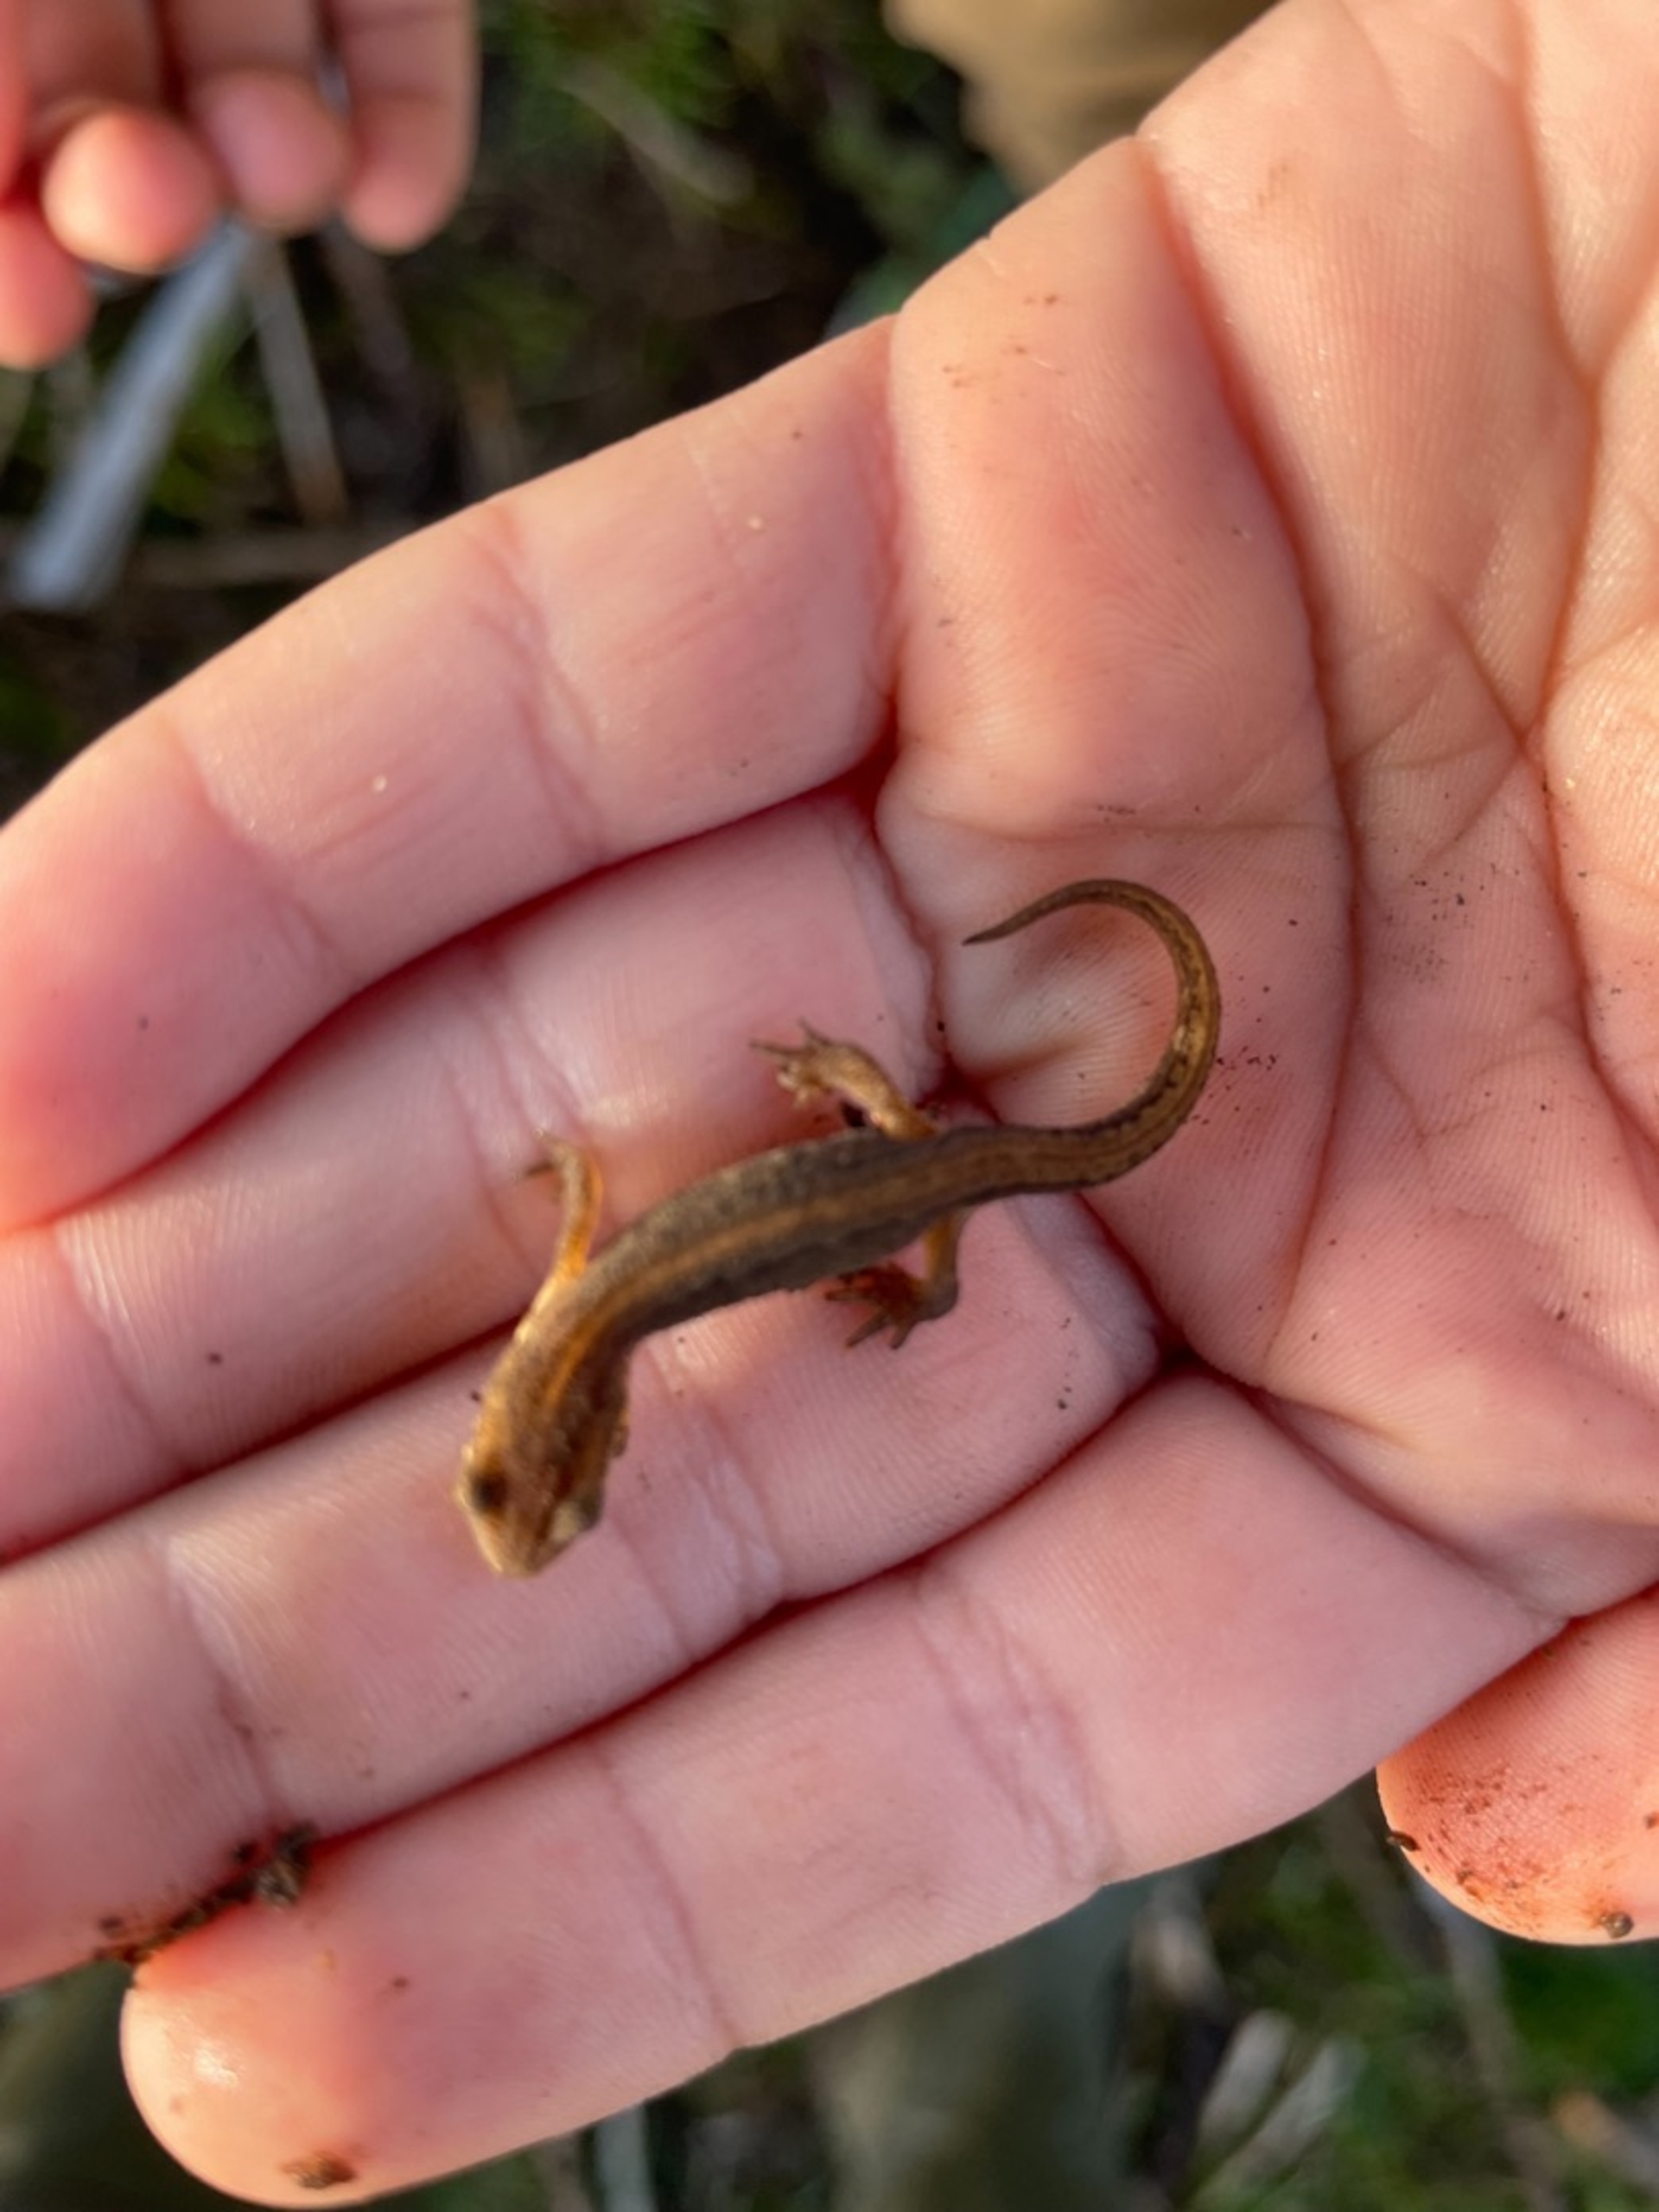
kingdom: Animalia
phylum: Chordata
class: Amphibia
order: Caudata
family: Salamandridae
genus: Lissotriton
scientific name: Lissotriton vulgaris
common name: Lille vandsalamander
